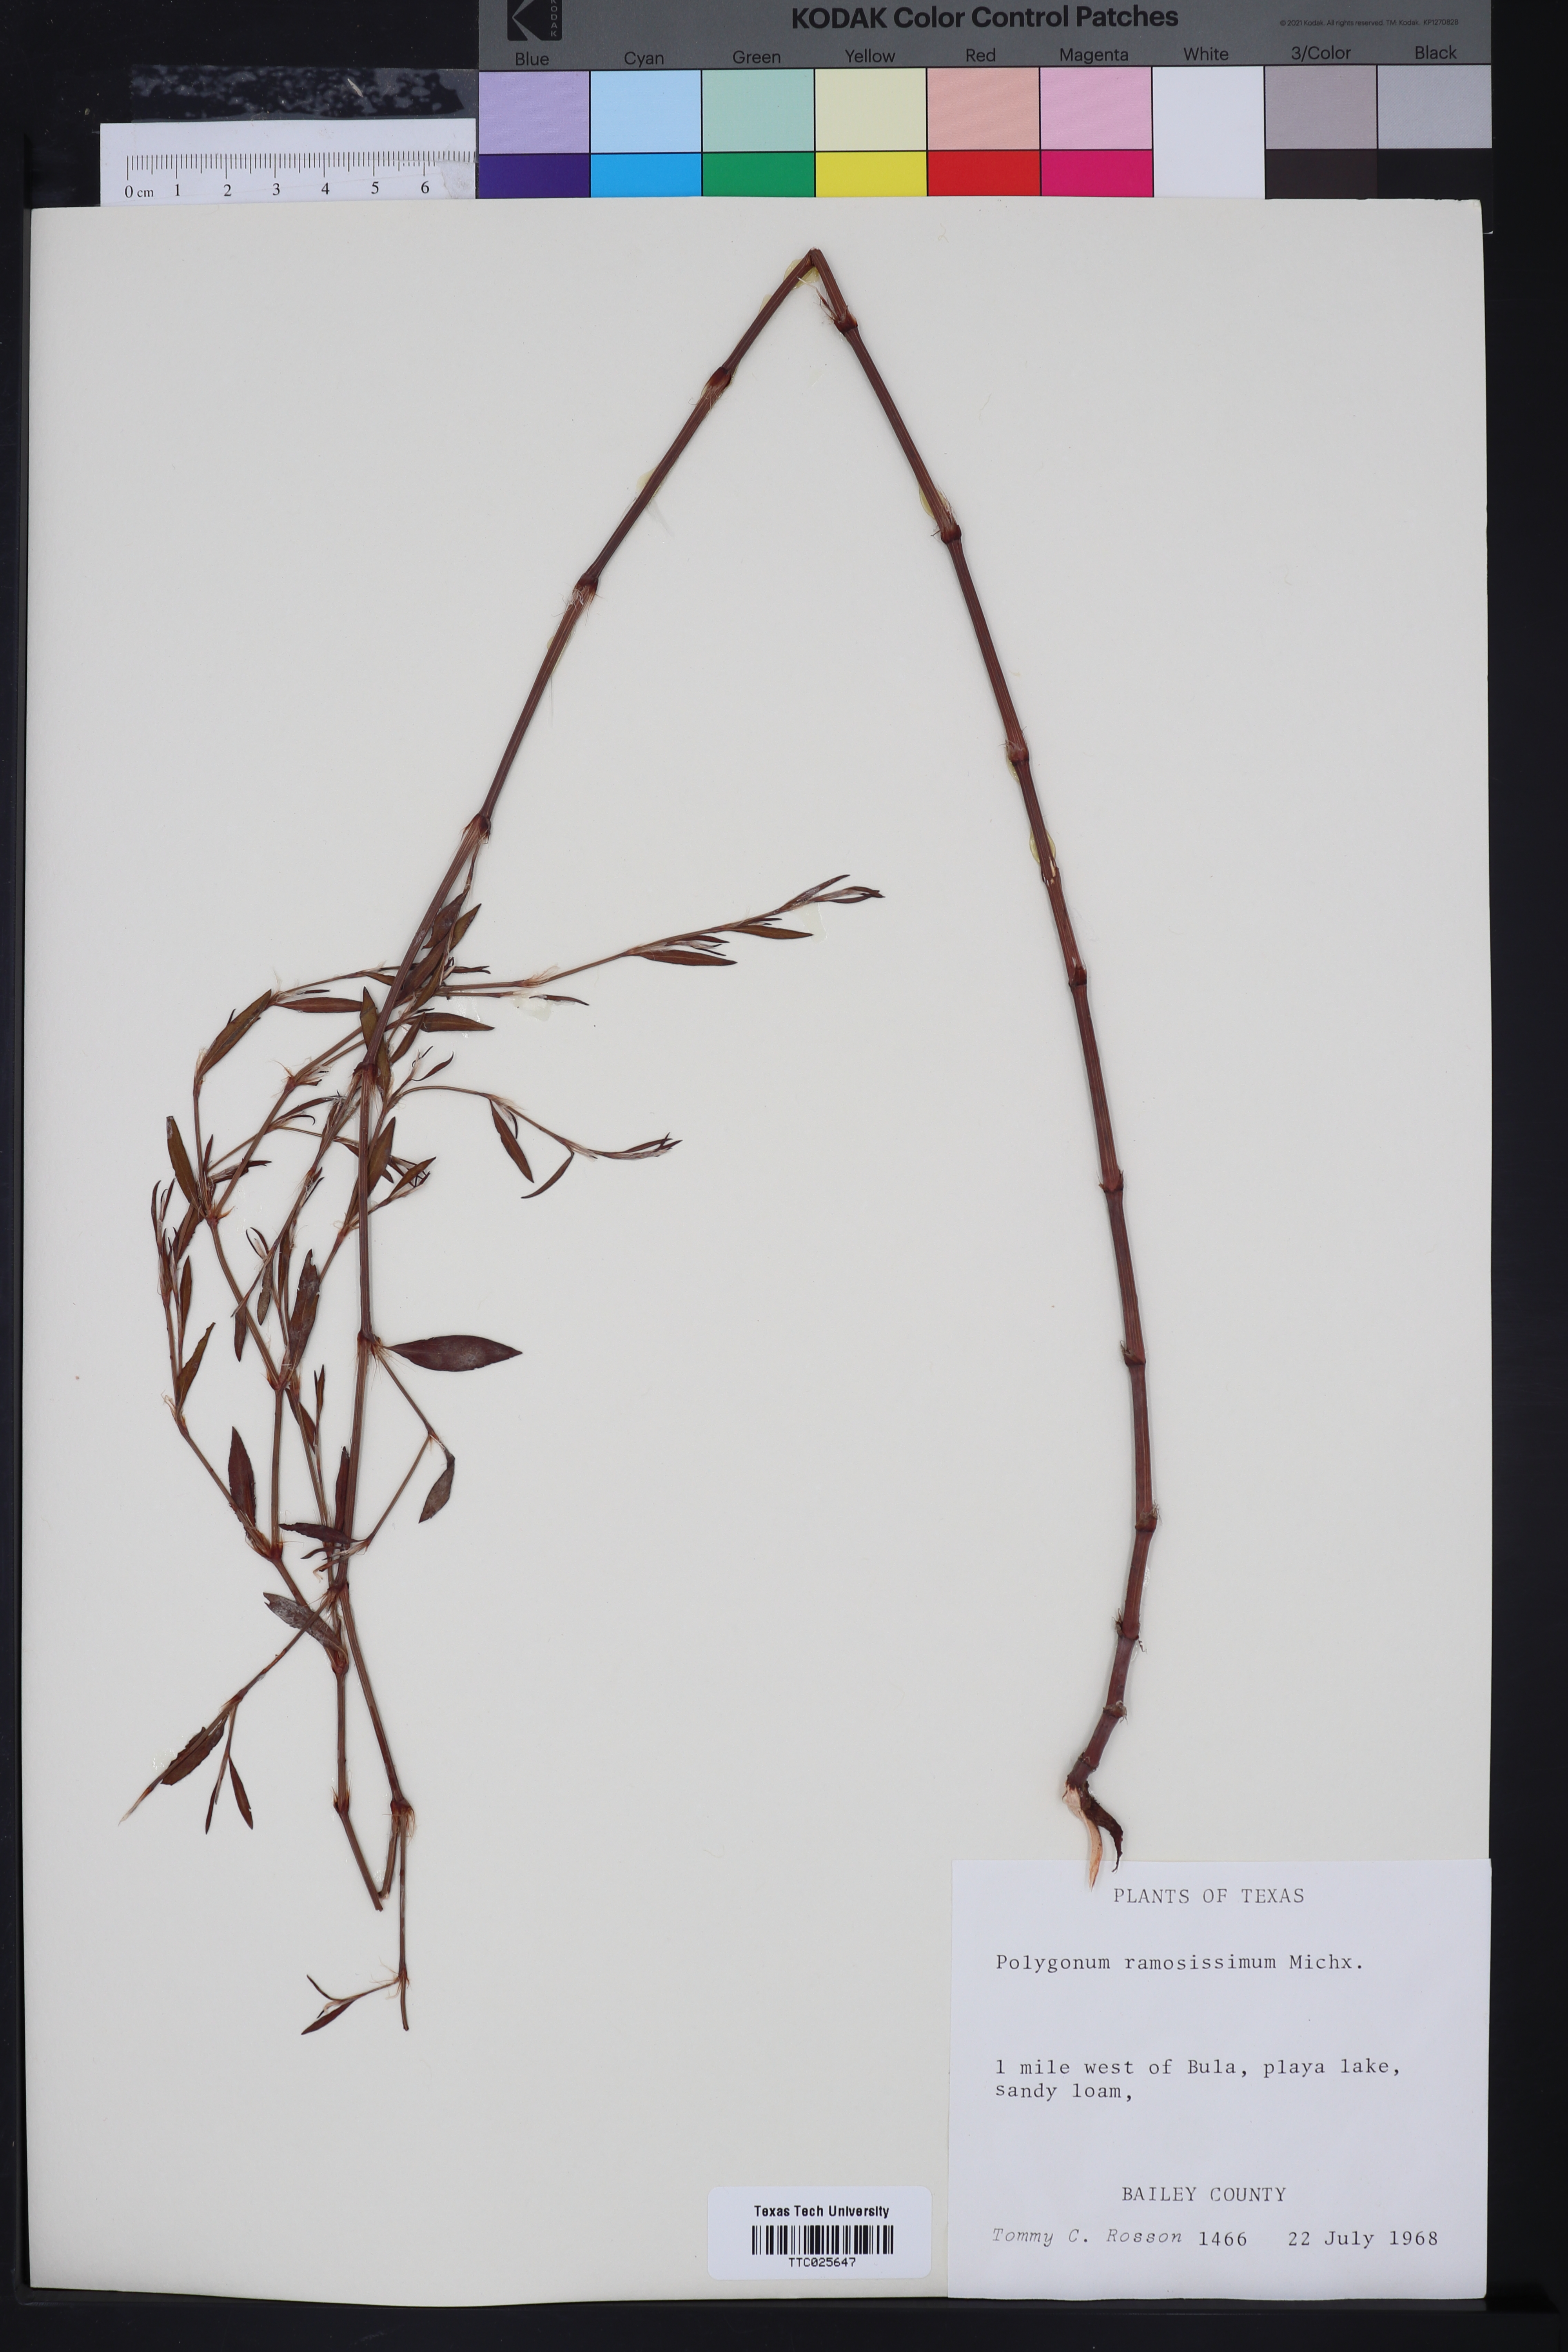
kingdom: Plantae
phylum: Tracheophyta
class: Magnoliopsida
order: Caryophyllales
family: Polygonaceae
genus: Polygonum
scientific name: Polygonum ramosissimum
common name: Bushy knotweed
